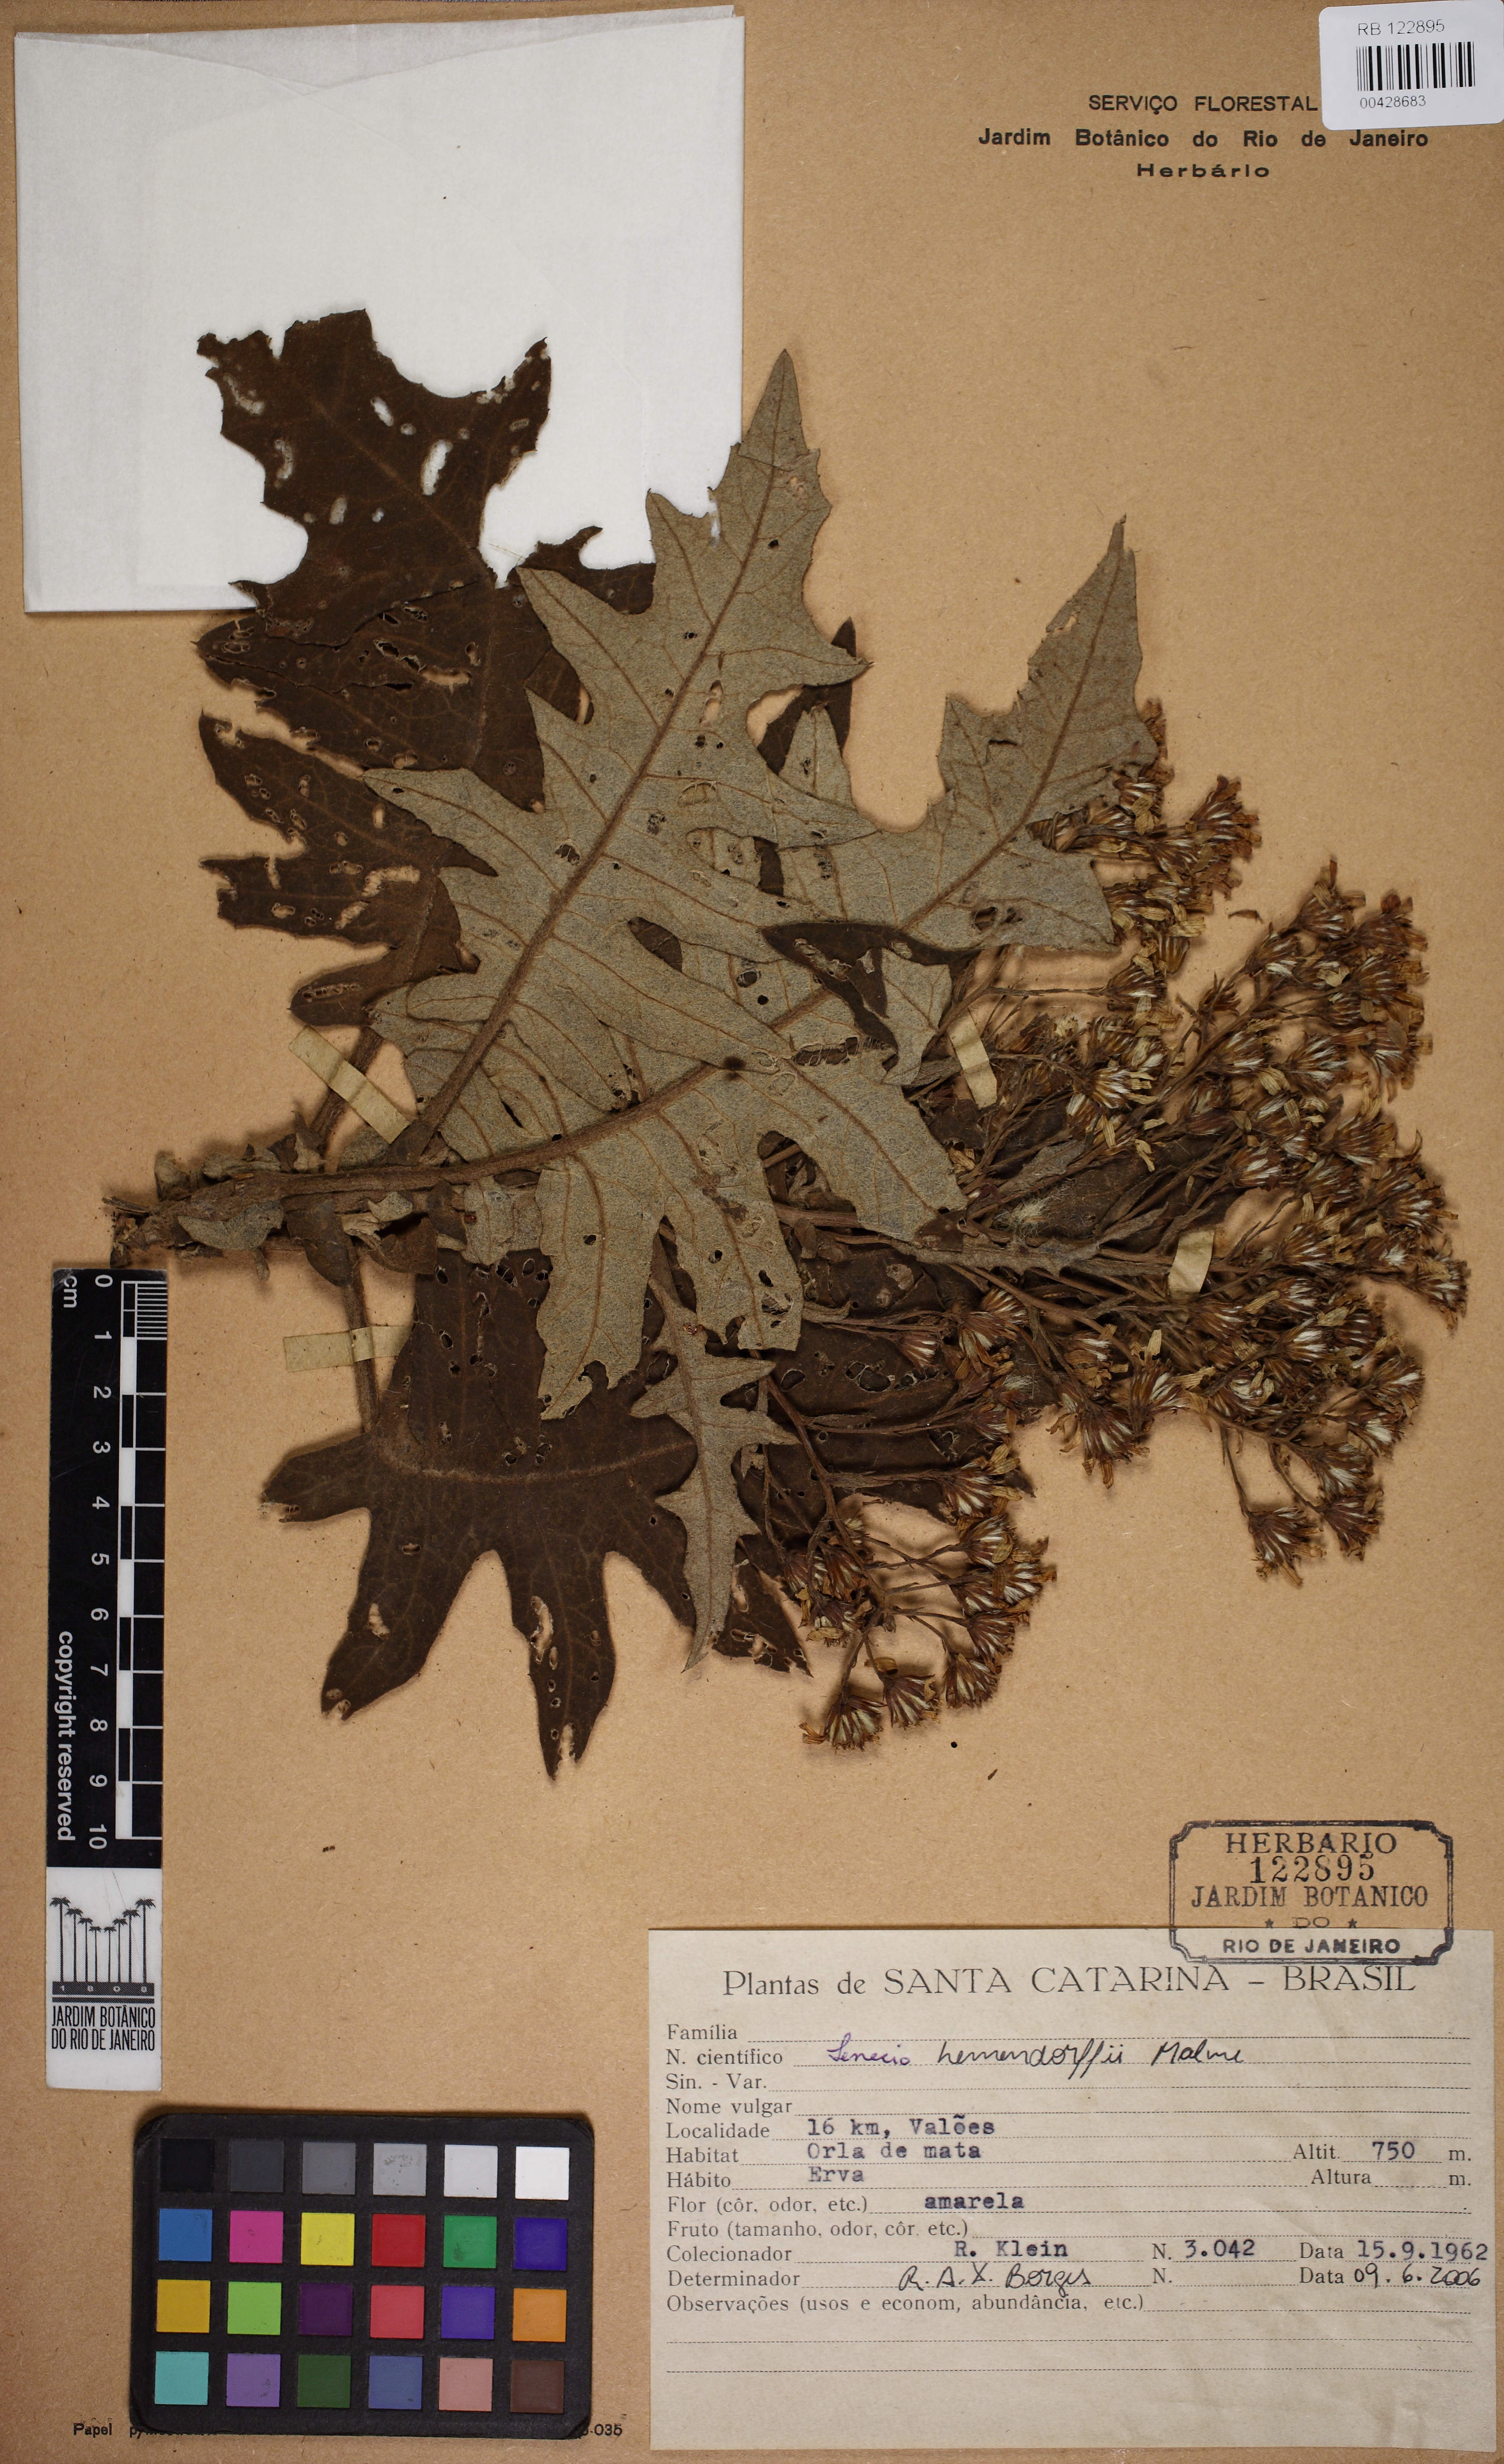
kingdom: Plantae
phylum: Tracheophyta
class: Magnoliopsida
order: Asterales
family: Asteraceae
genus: Senecio
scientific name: Senecio stigophlebius
